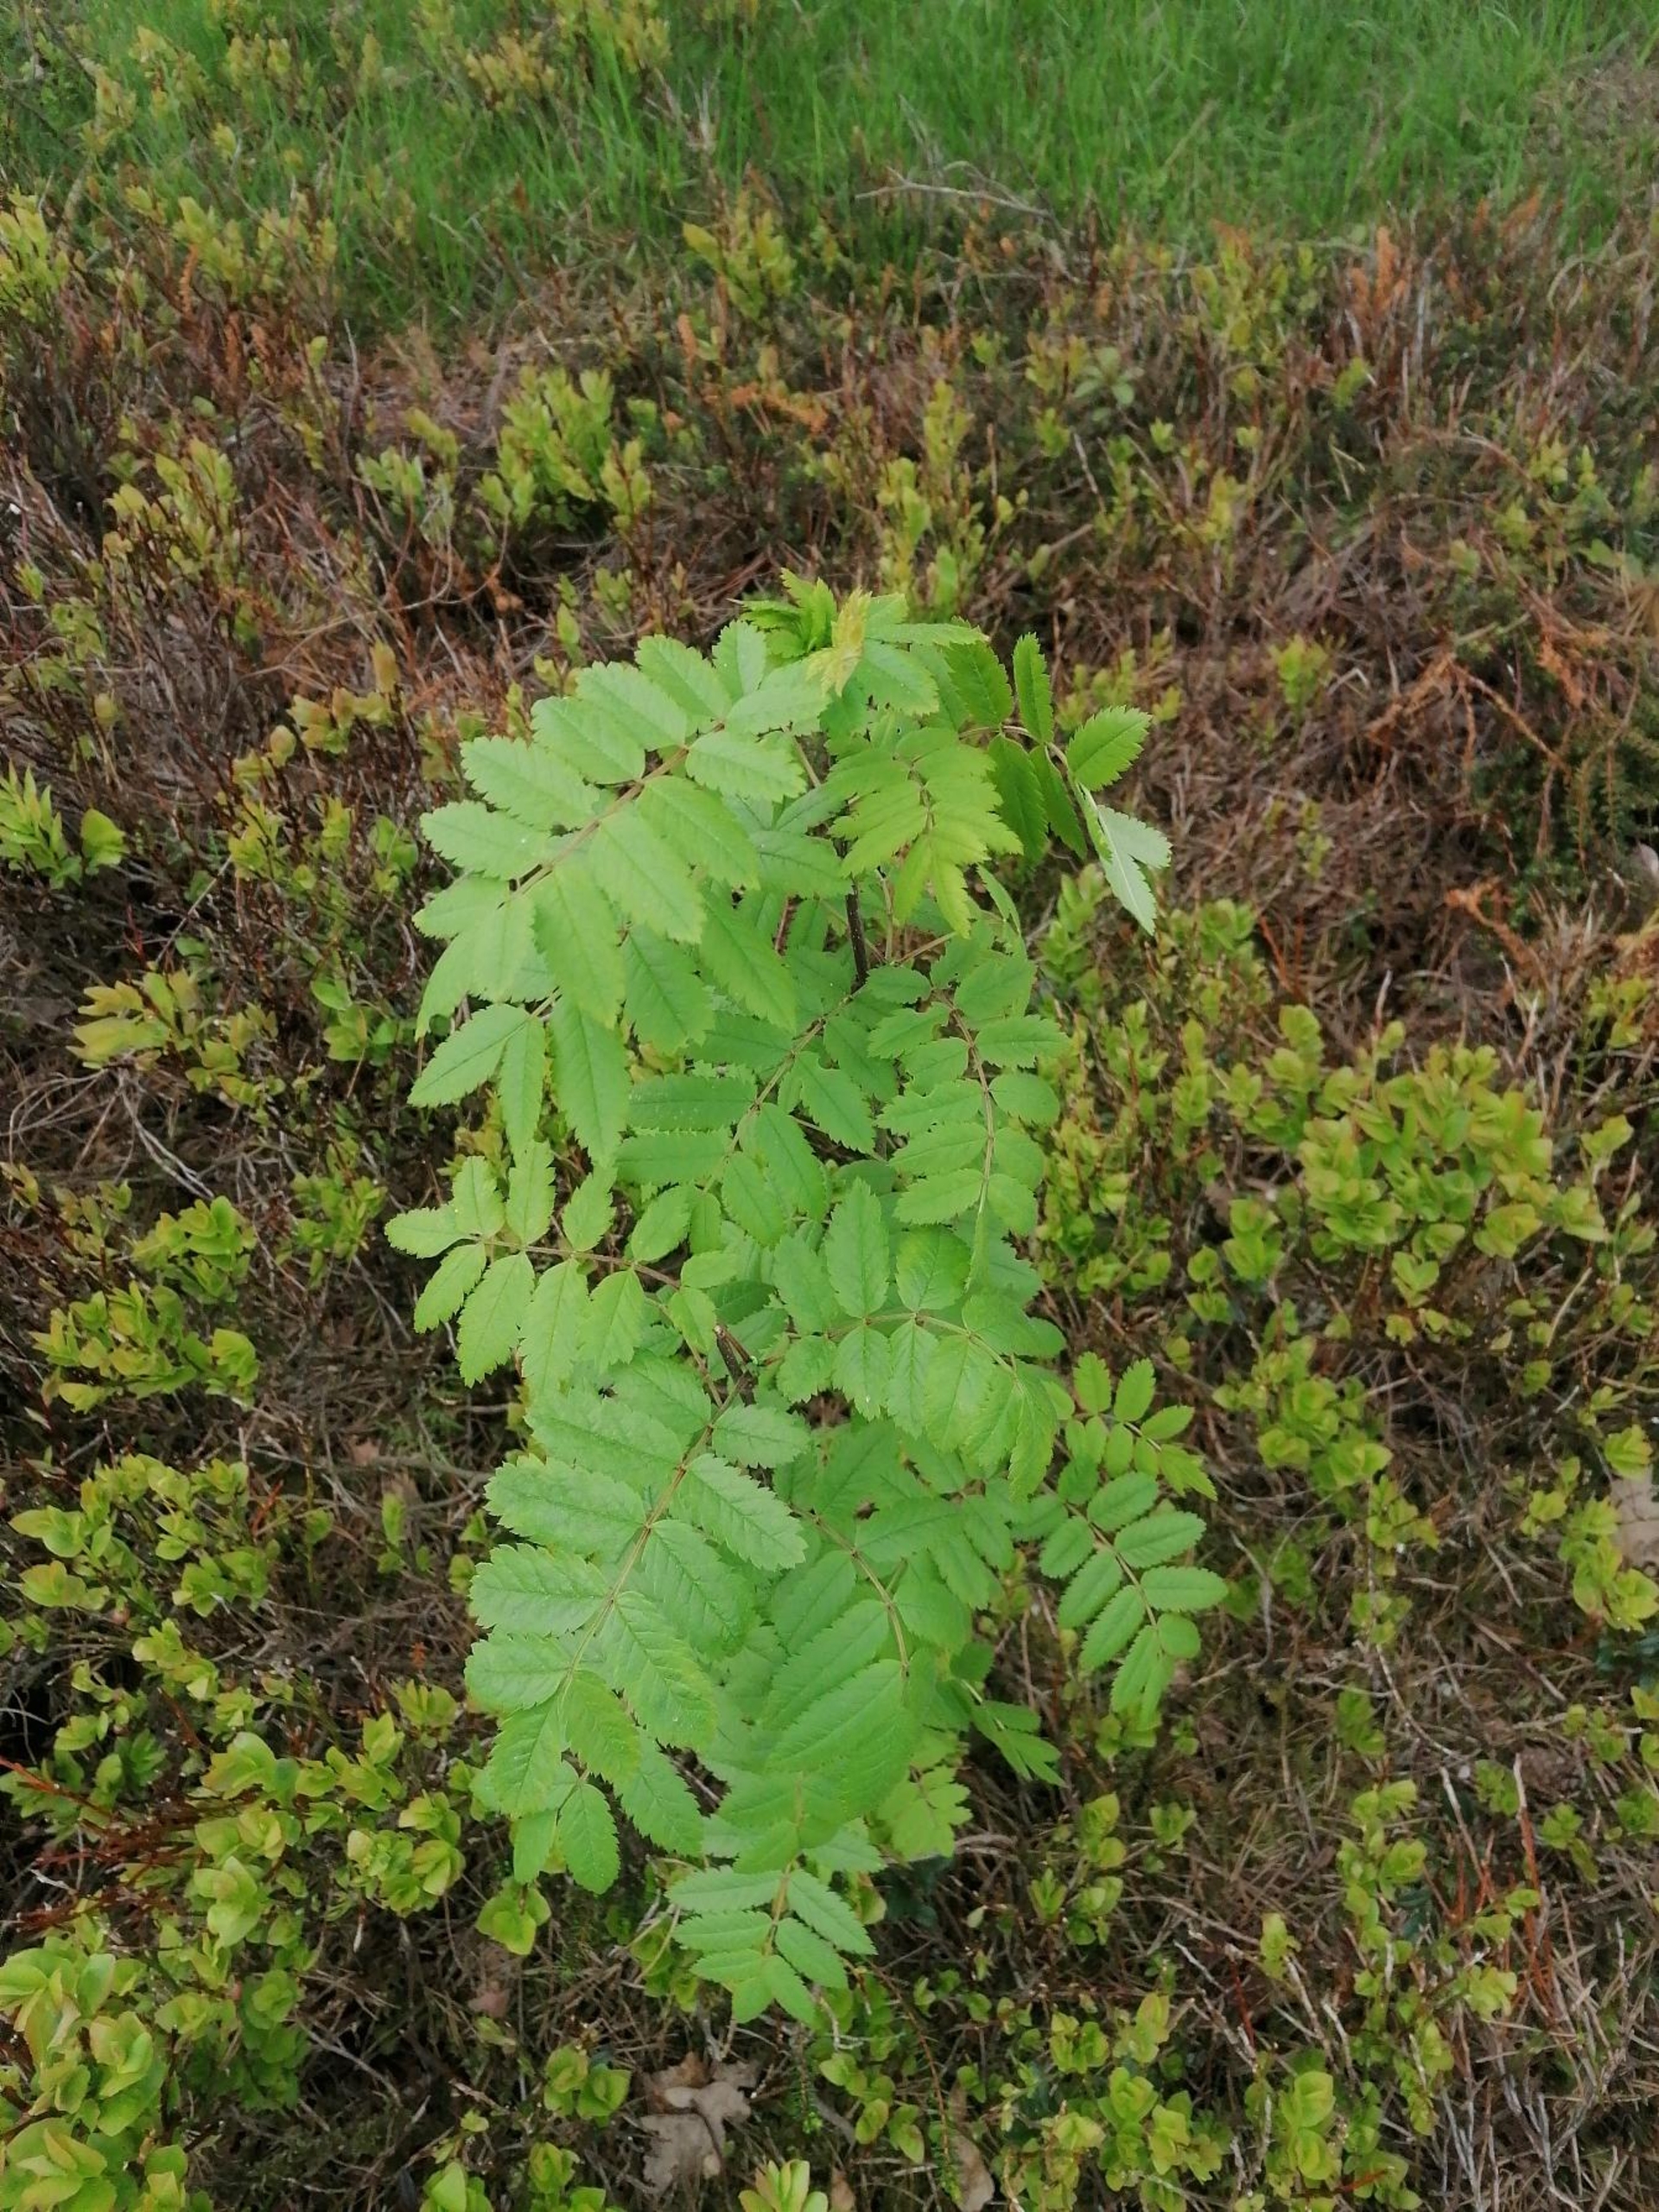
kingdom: Plantae
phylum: Tracheophyta
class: Magnoliopsida
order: Rosales
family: Rosaceae
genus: Sorbus
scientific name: Sorbus aucuparia
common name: Almindelig røn
